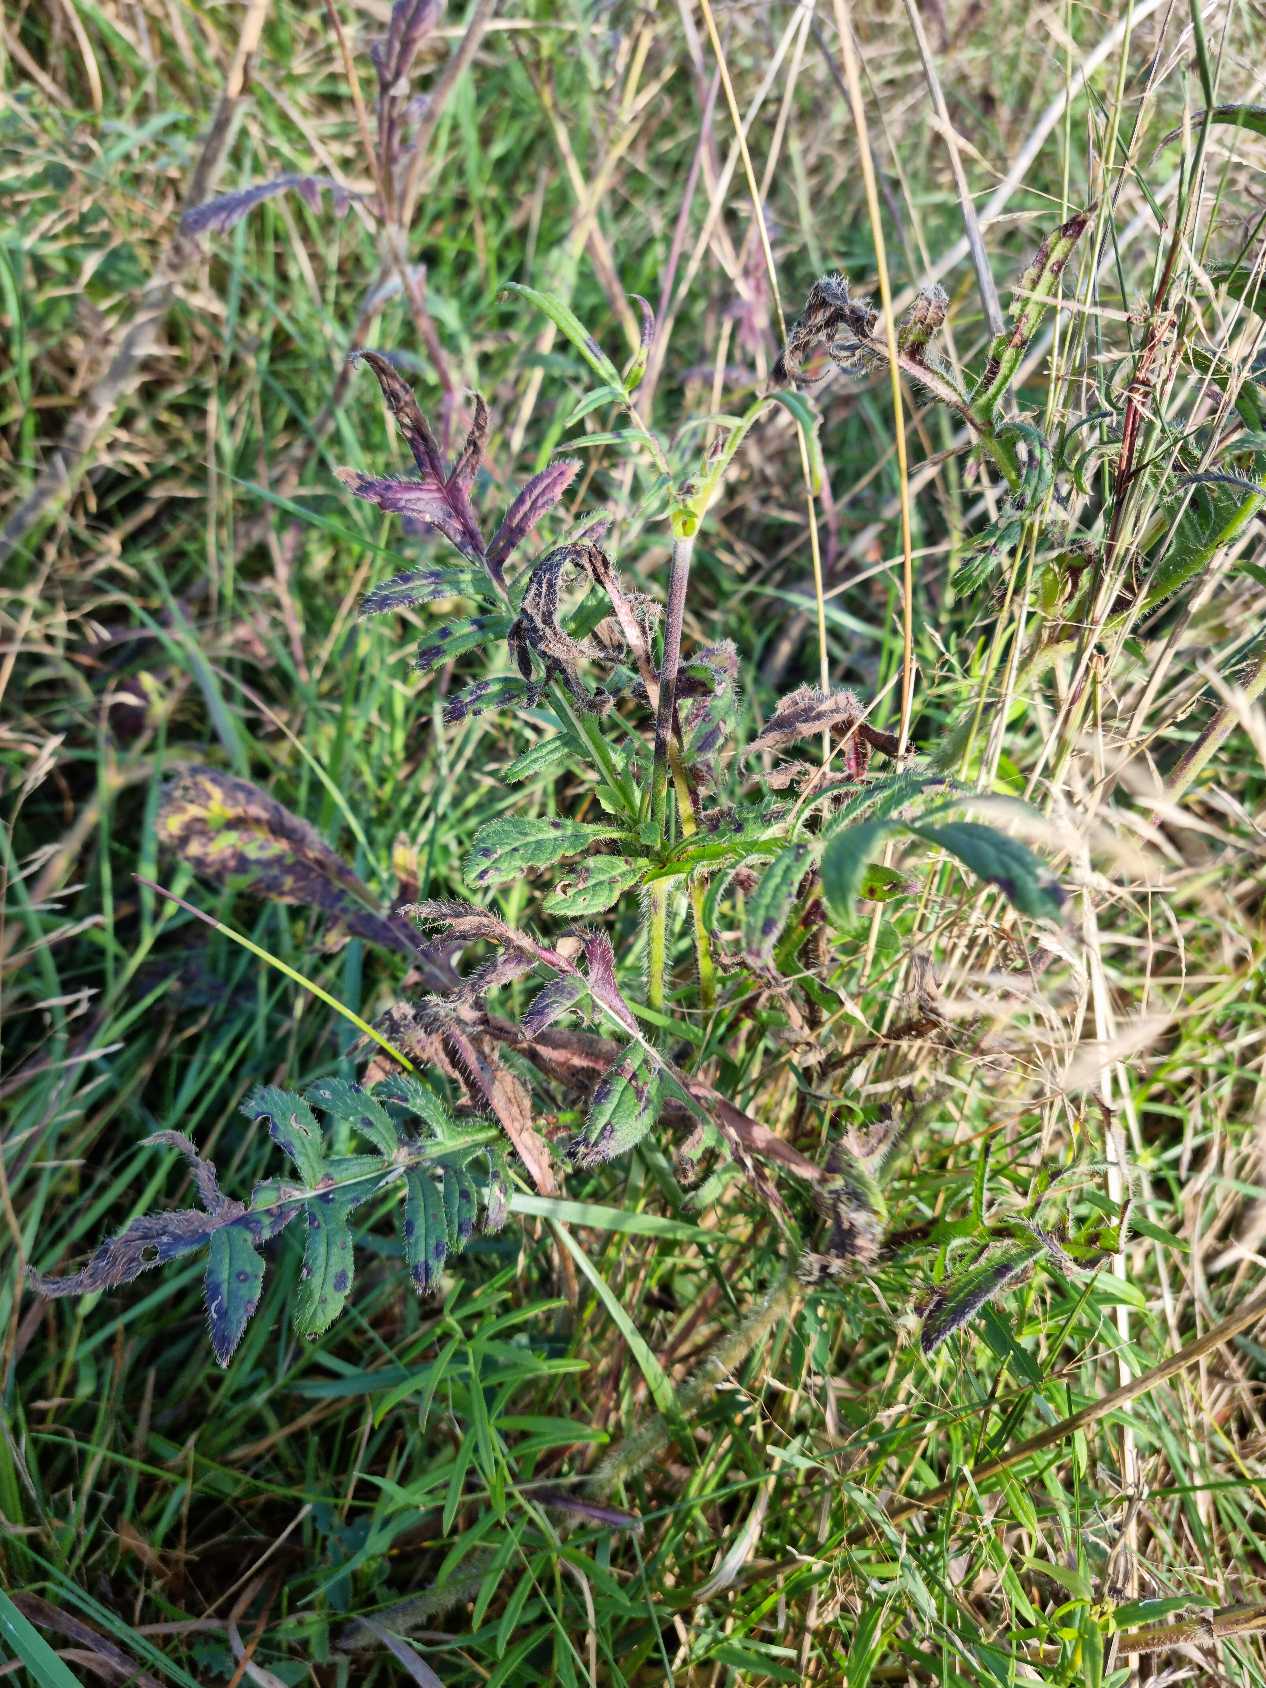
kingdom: Plantae
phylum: Tracheophyta
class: Magnoliopsida
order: Dipsacales
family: Caprifoliaceae
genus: Knautia
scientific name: Knautia arvensis
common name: Blåhat
